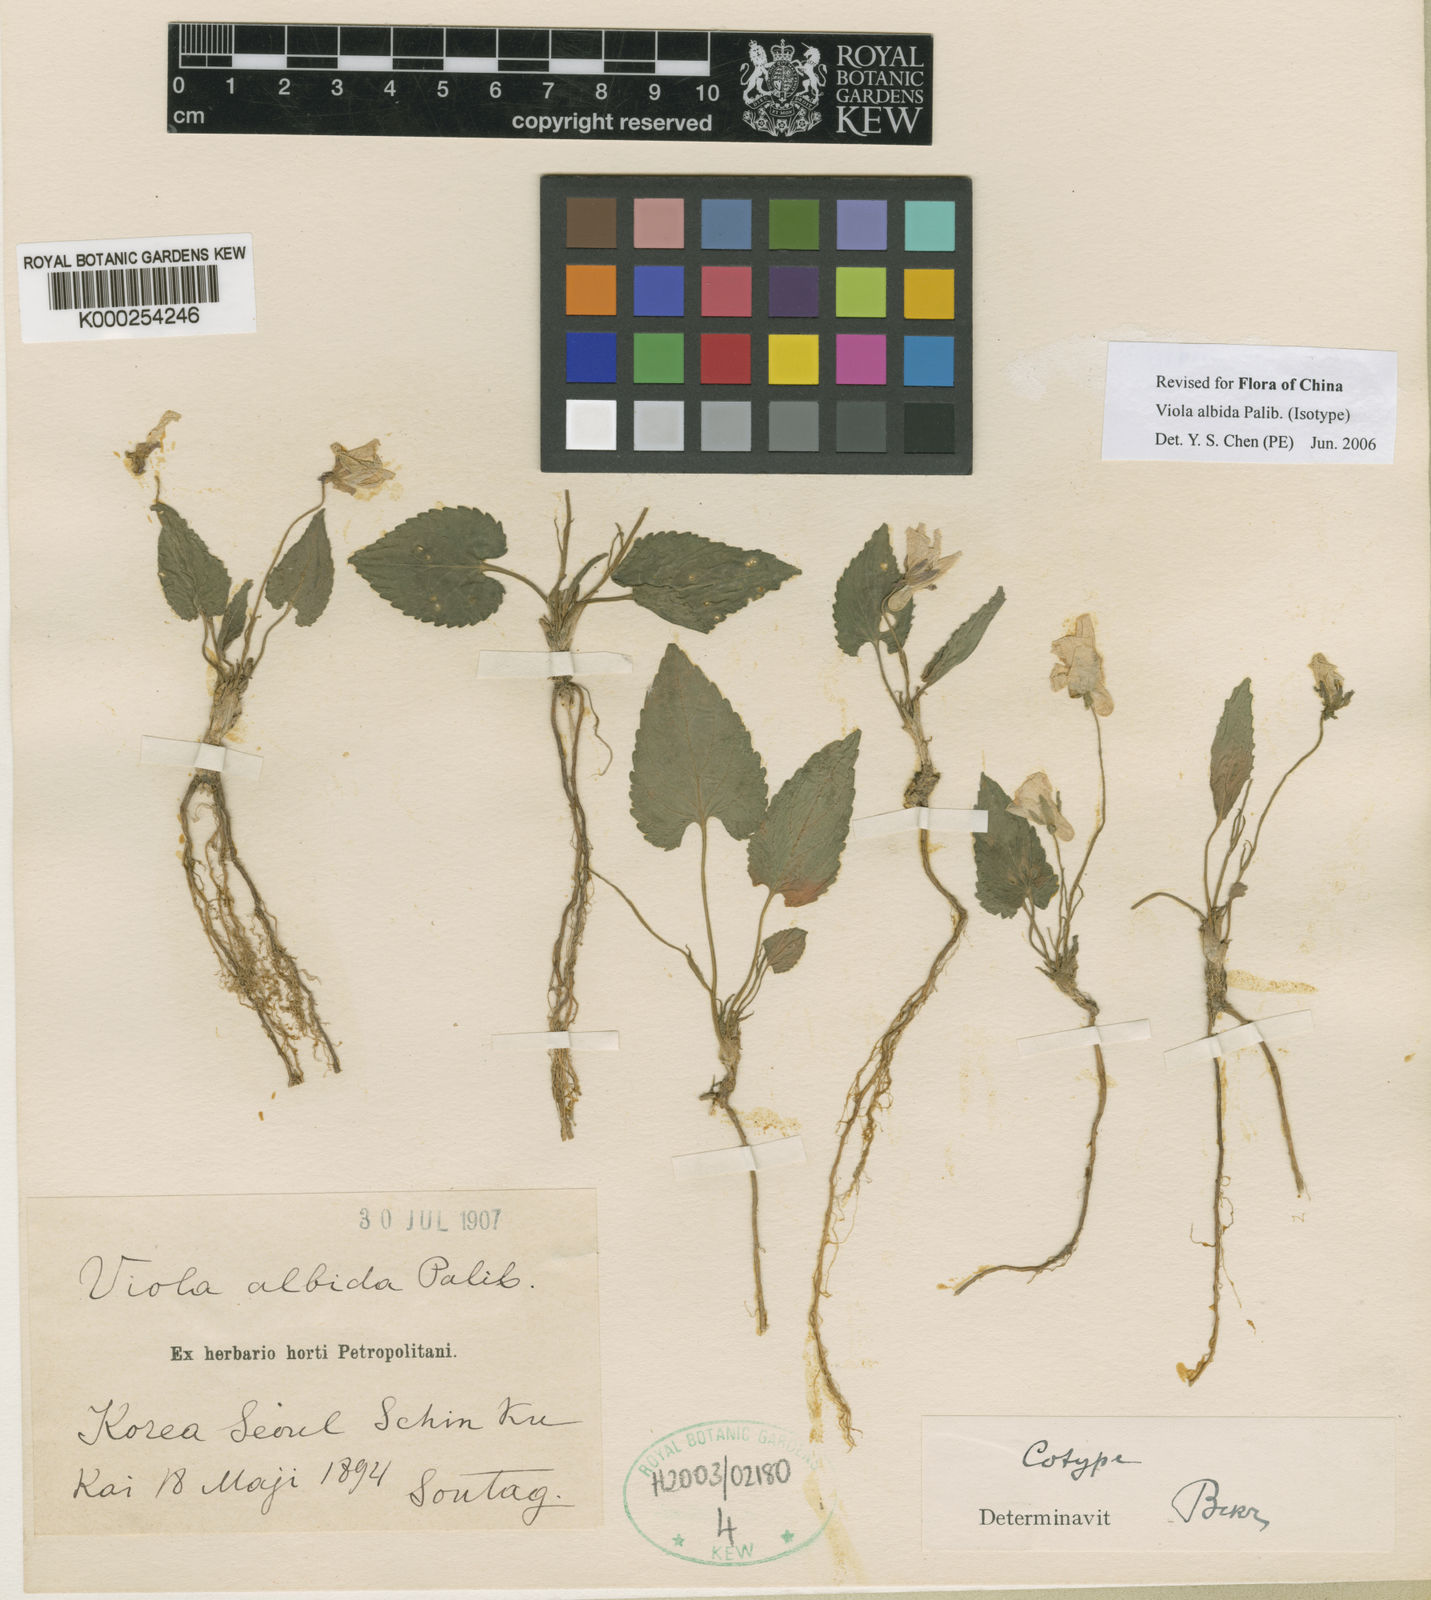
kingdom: Plantae
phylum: Tracheophyta
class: Magnoliopsida
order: Malpighiales
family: Violaceae
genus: Viola
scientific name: Viola albida
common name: Korean violet
